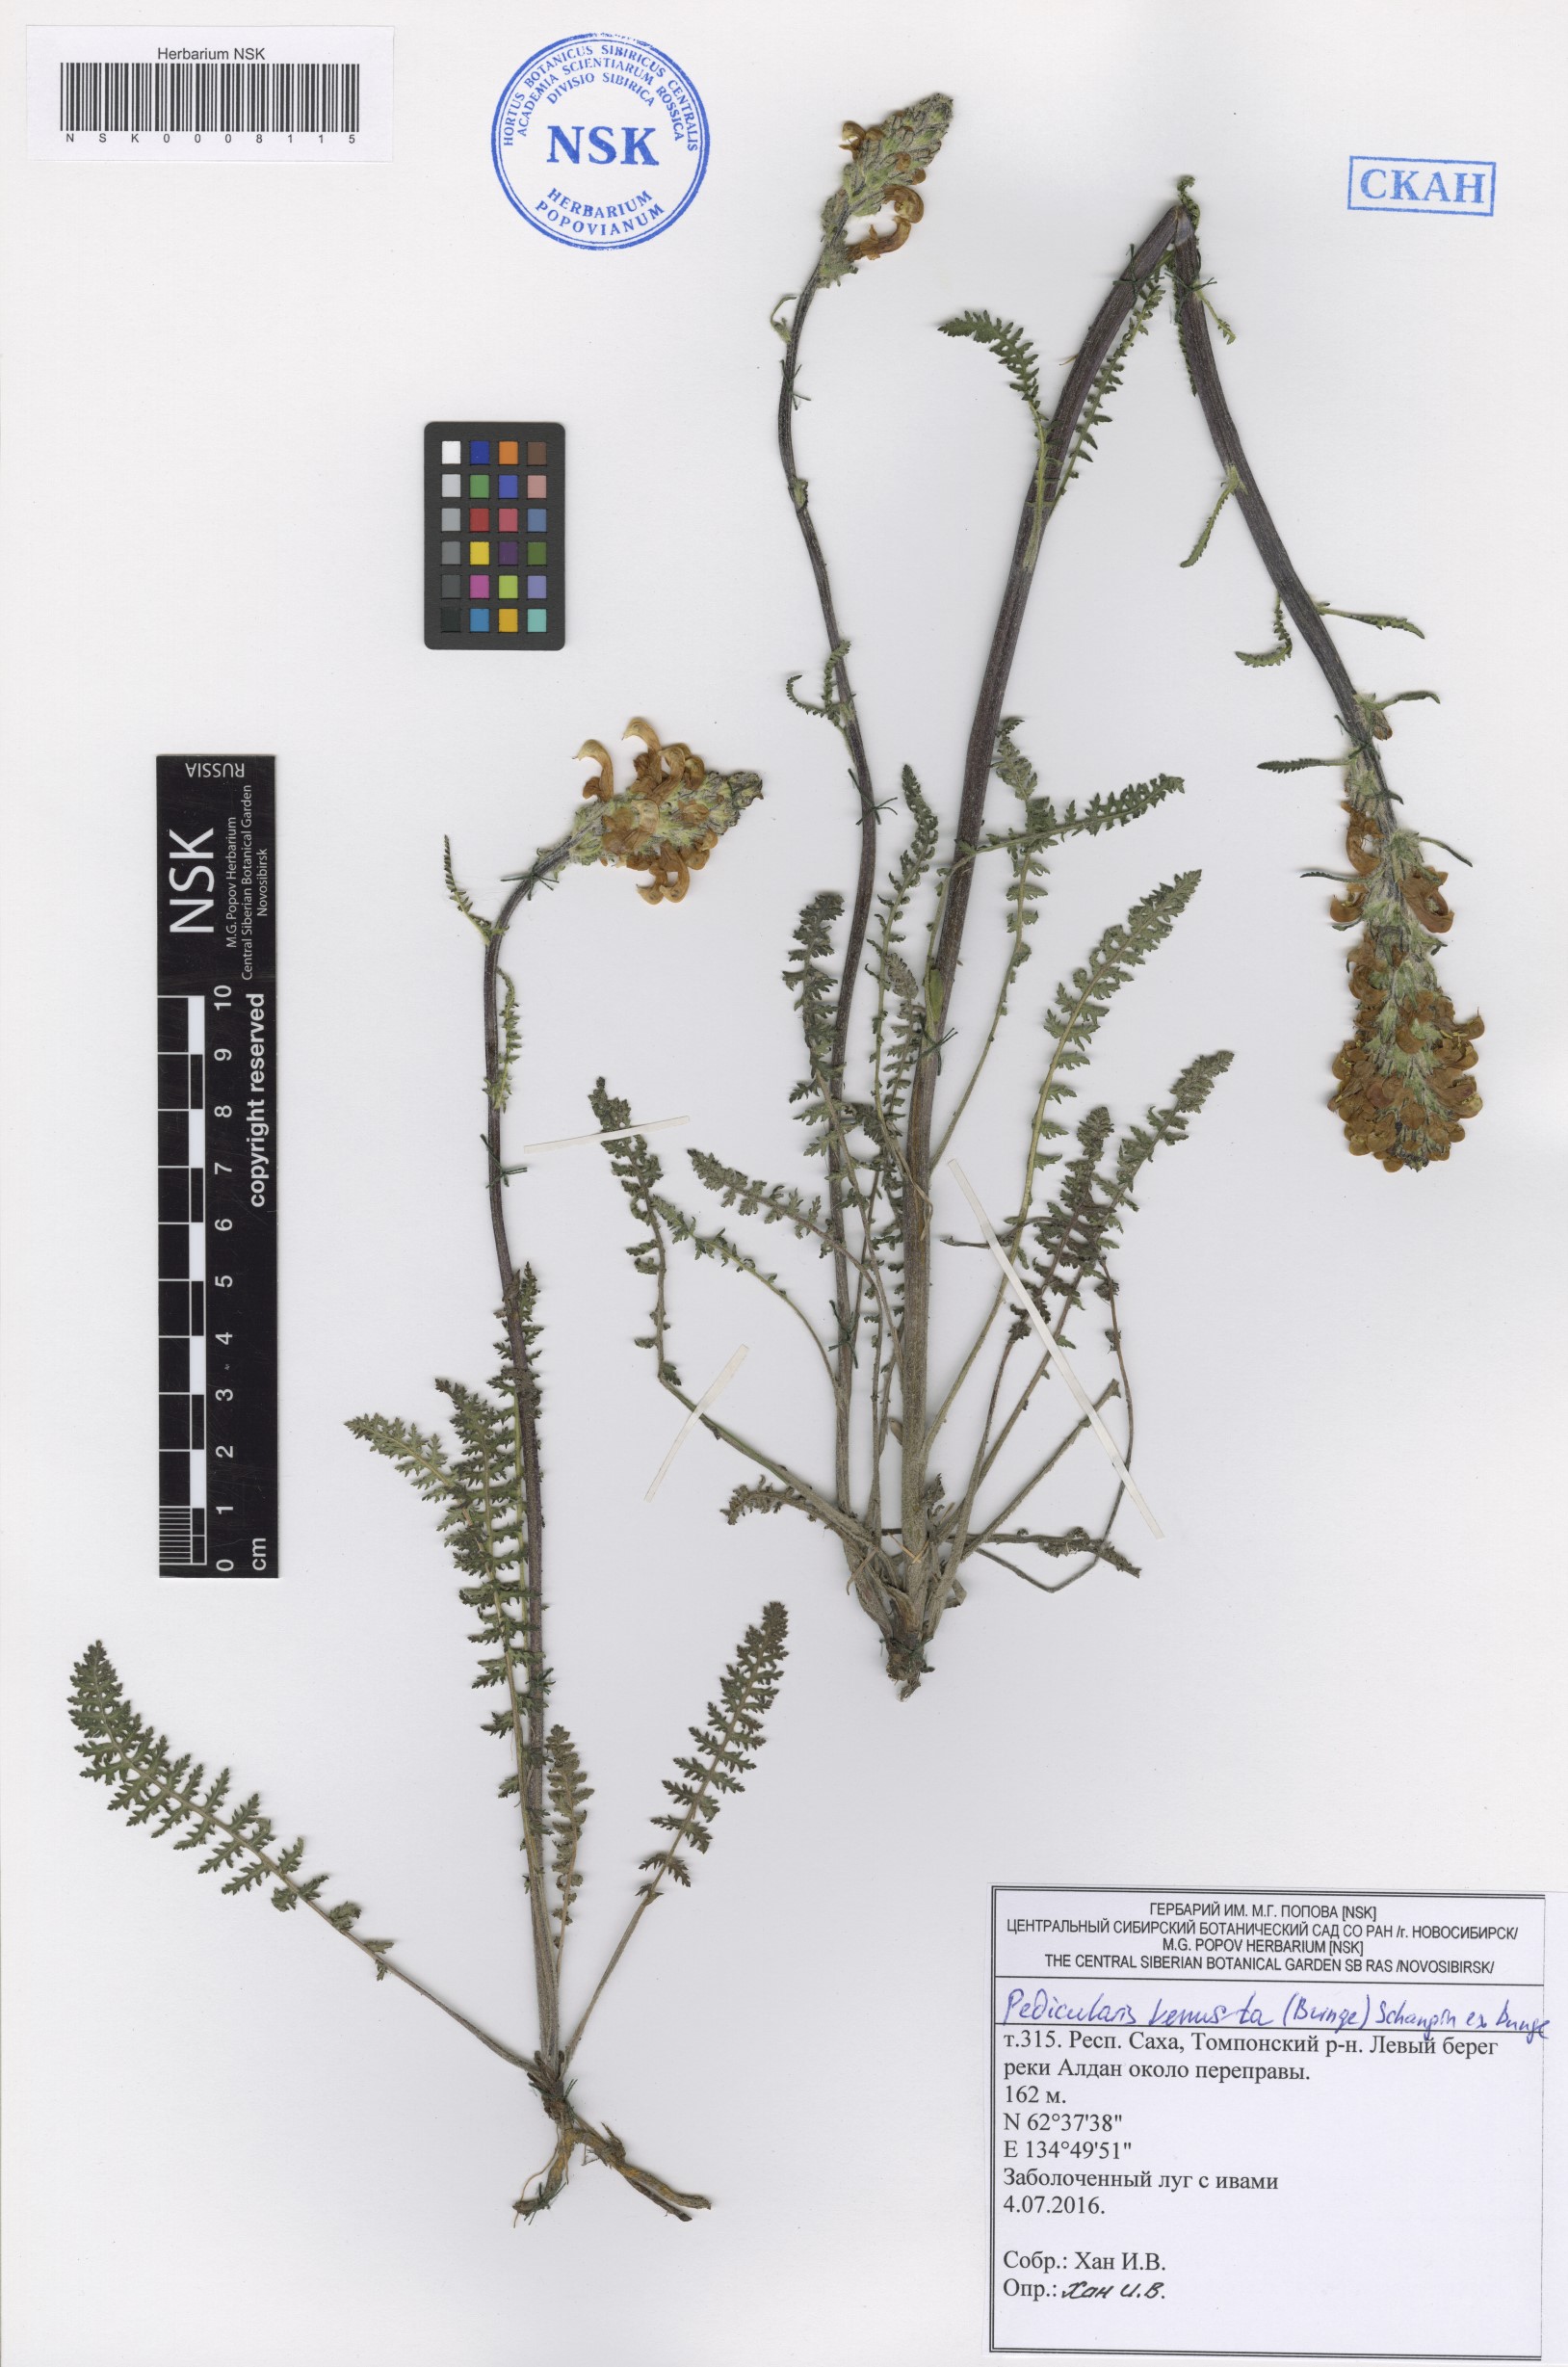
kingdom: Plantae
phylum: Tracheophyta
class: Magnoliopsida
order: Lamiales
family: Orobanchaceae
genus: Pedicularis
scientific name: Pedicularis venusta
